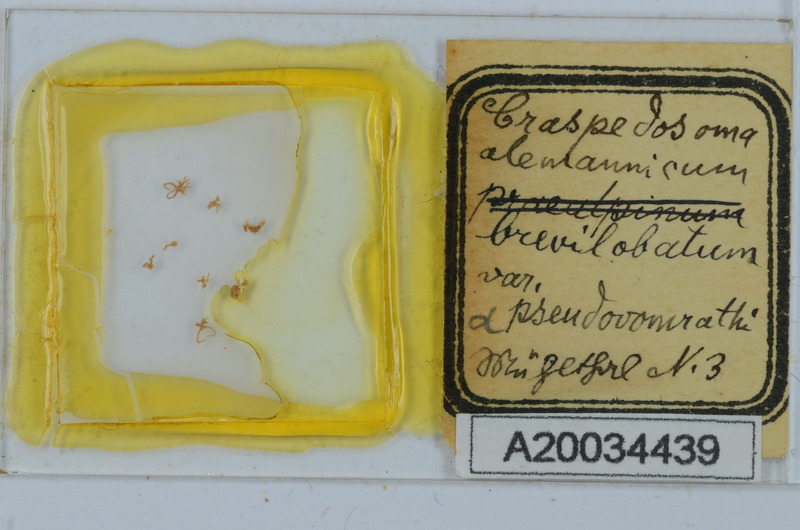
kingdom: Animalia
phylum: Arthropoda
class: Diplopoda
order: Chordeumatida
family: Craspedosomatidae
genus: Craspedosoma
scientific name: Craspedosoma rawlinsii
